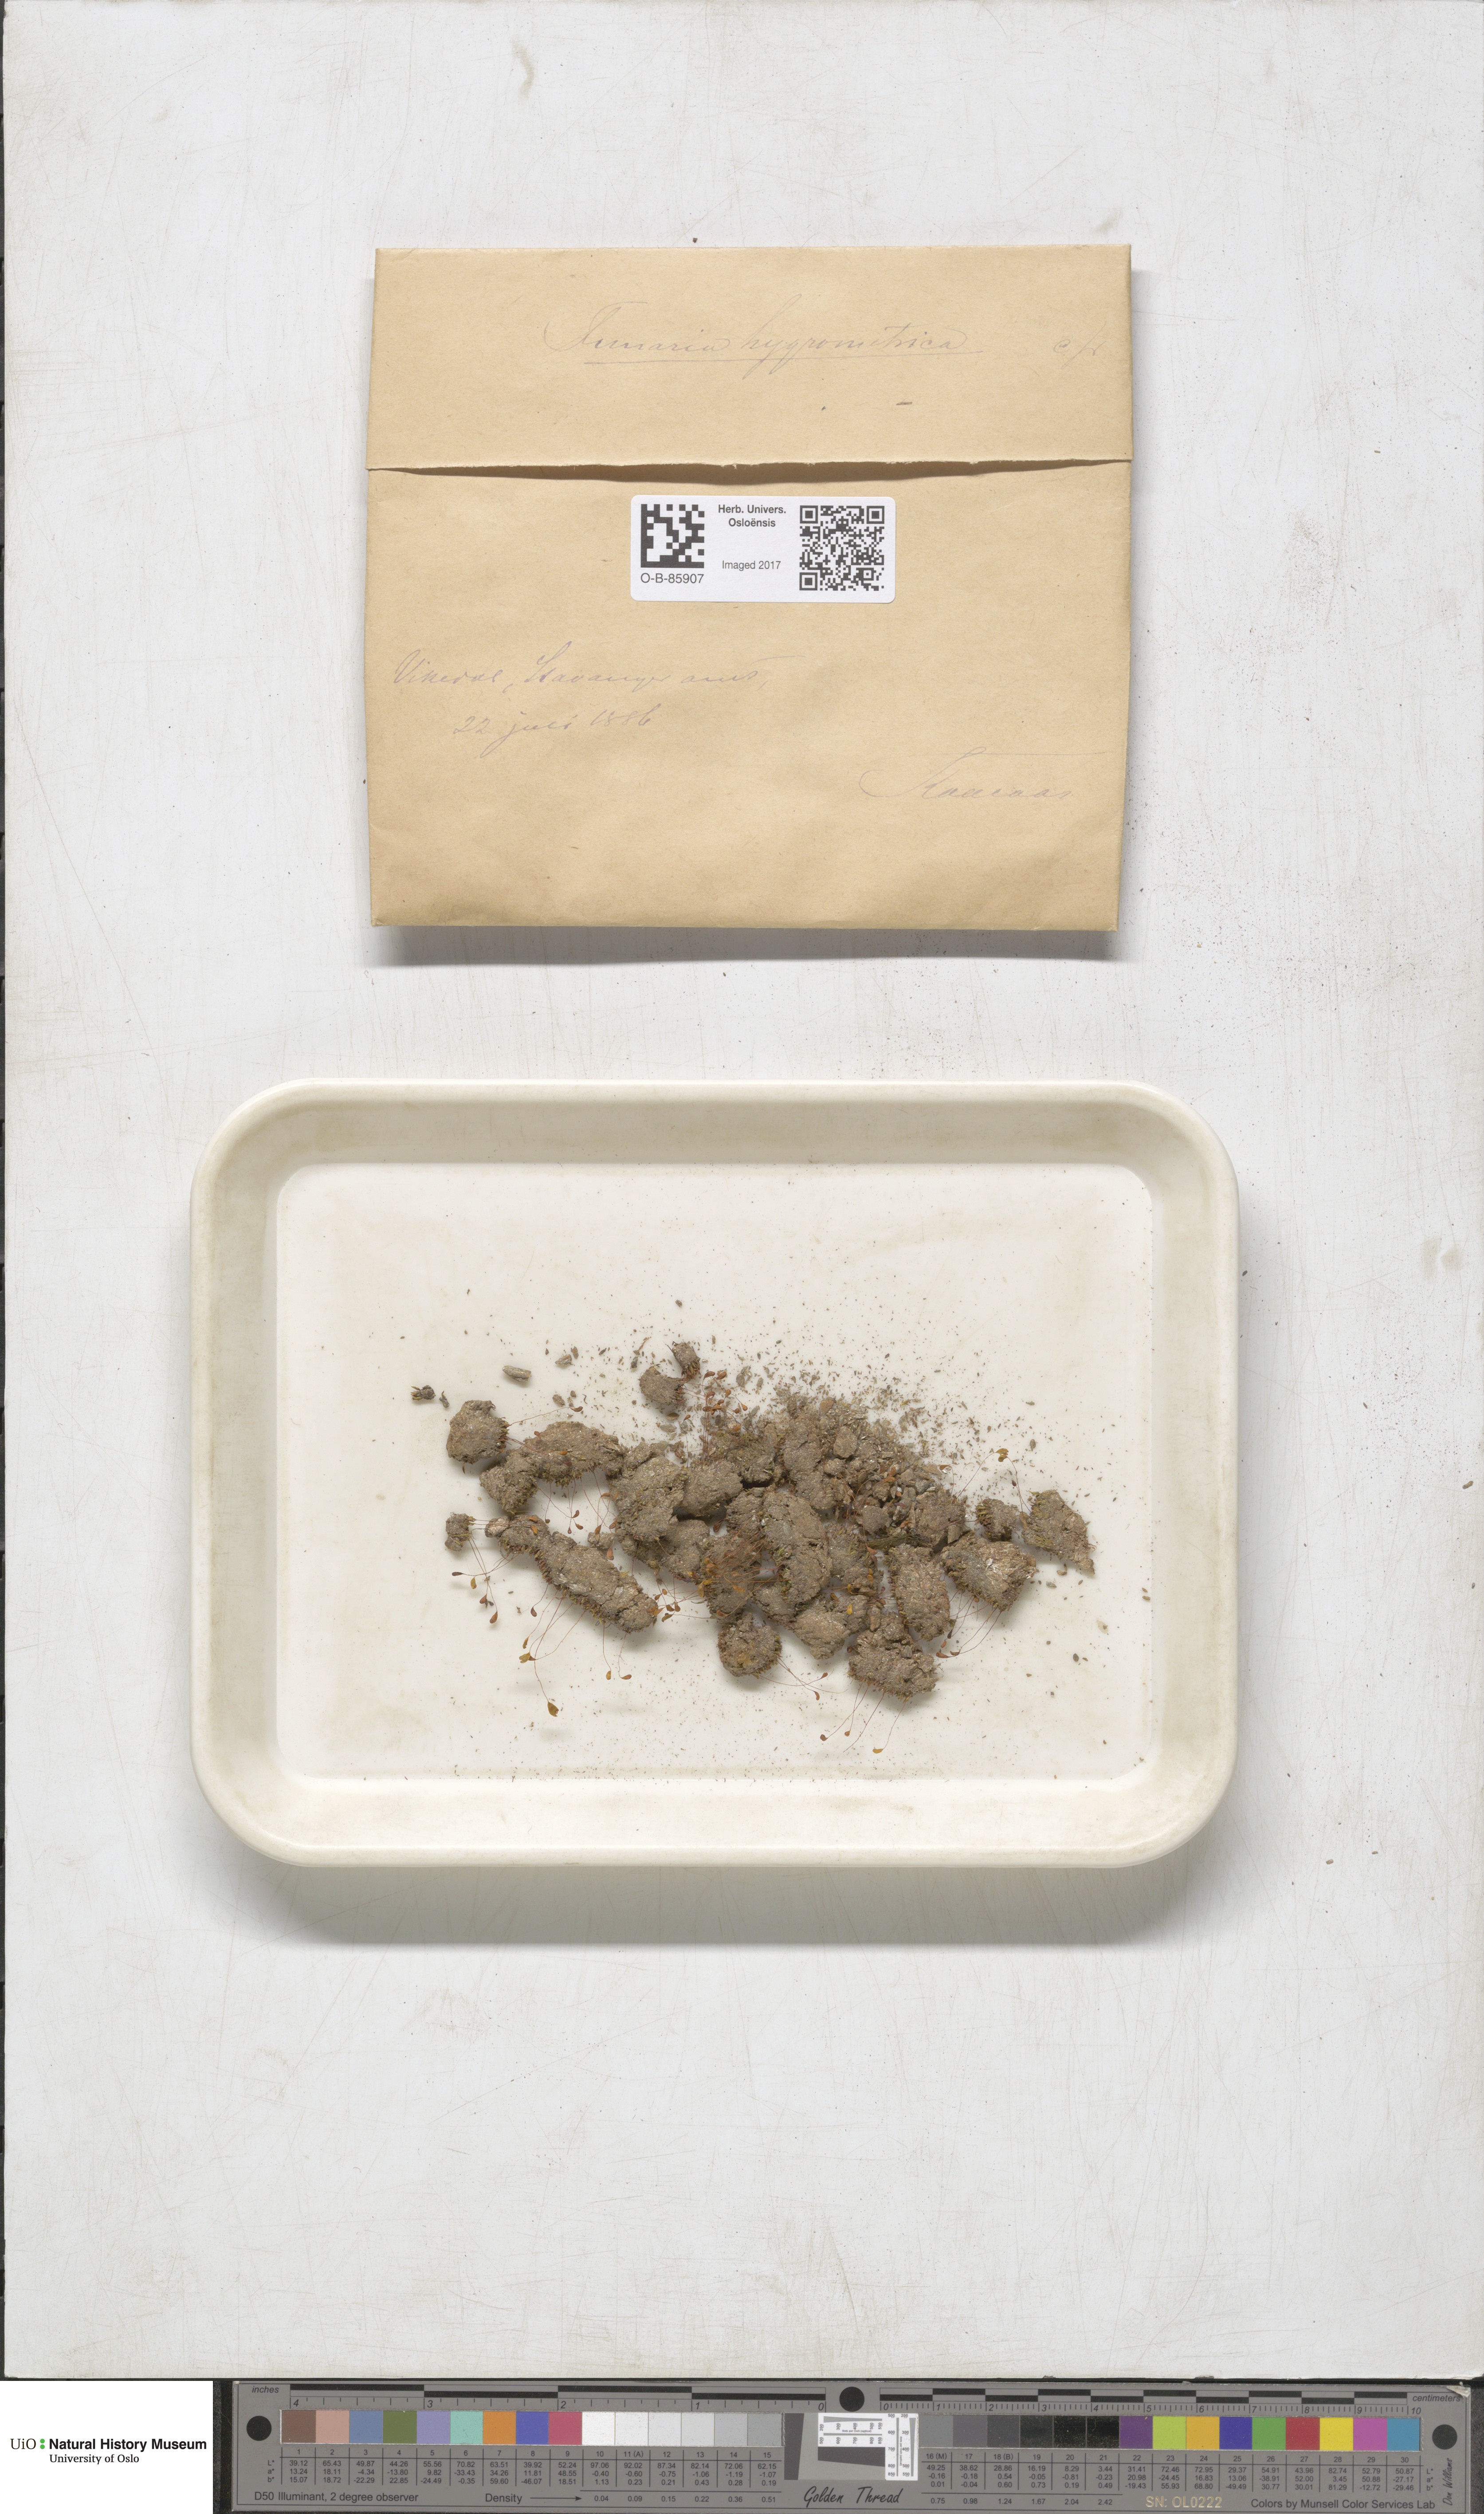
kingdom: Plantae
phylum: Bryophyta
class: Bryopsida
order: Funariales
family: Funariaceae
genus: Funaria
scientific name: Funaria hygrometrica
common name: Common cord moss
